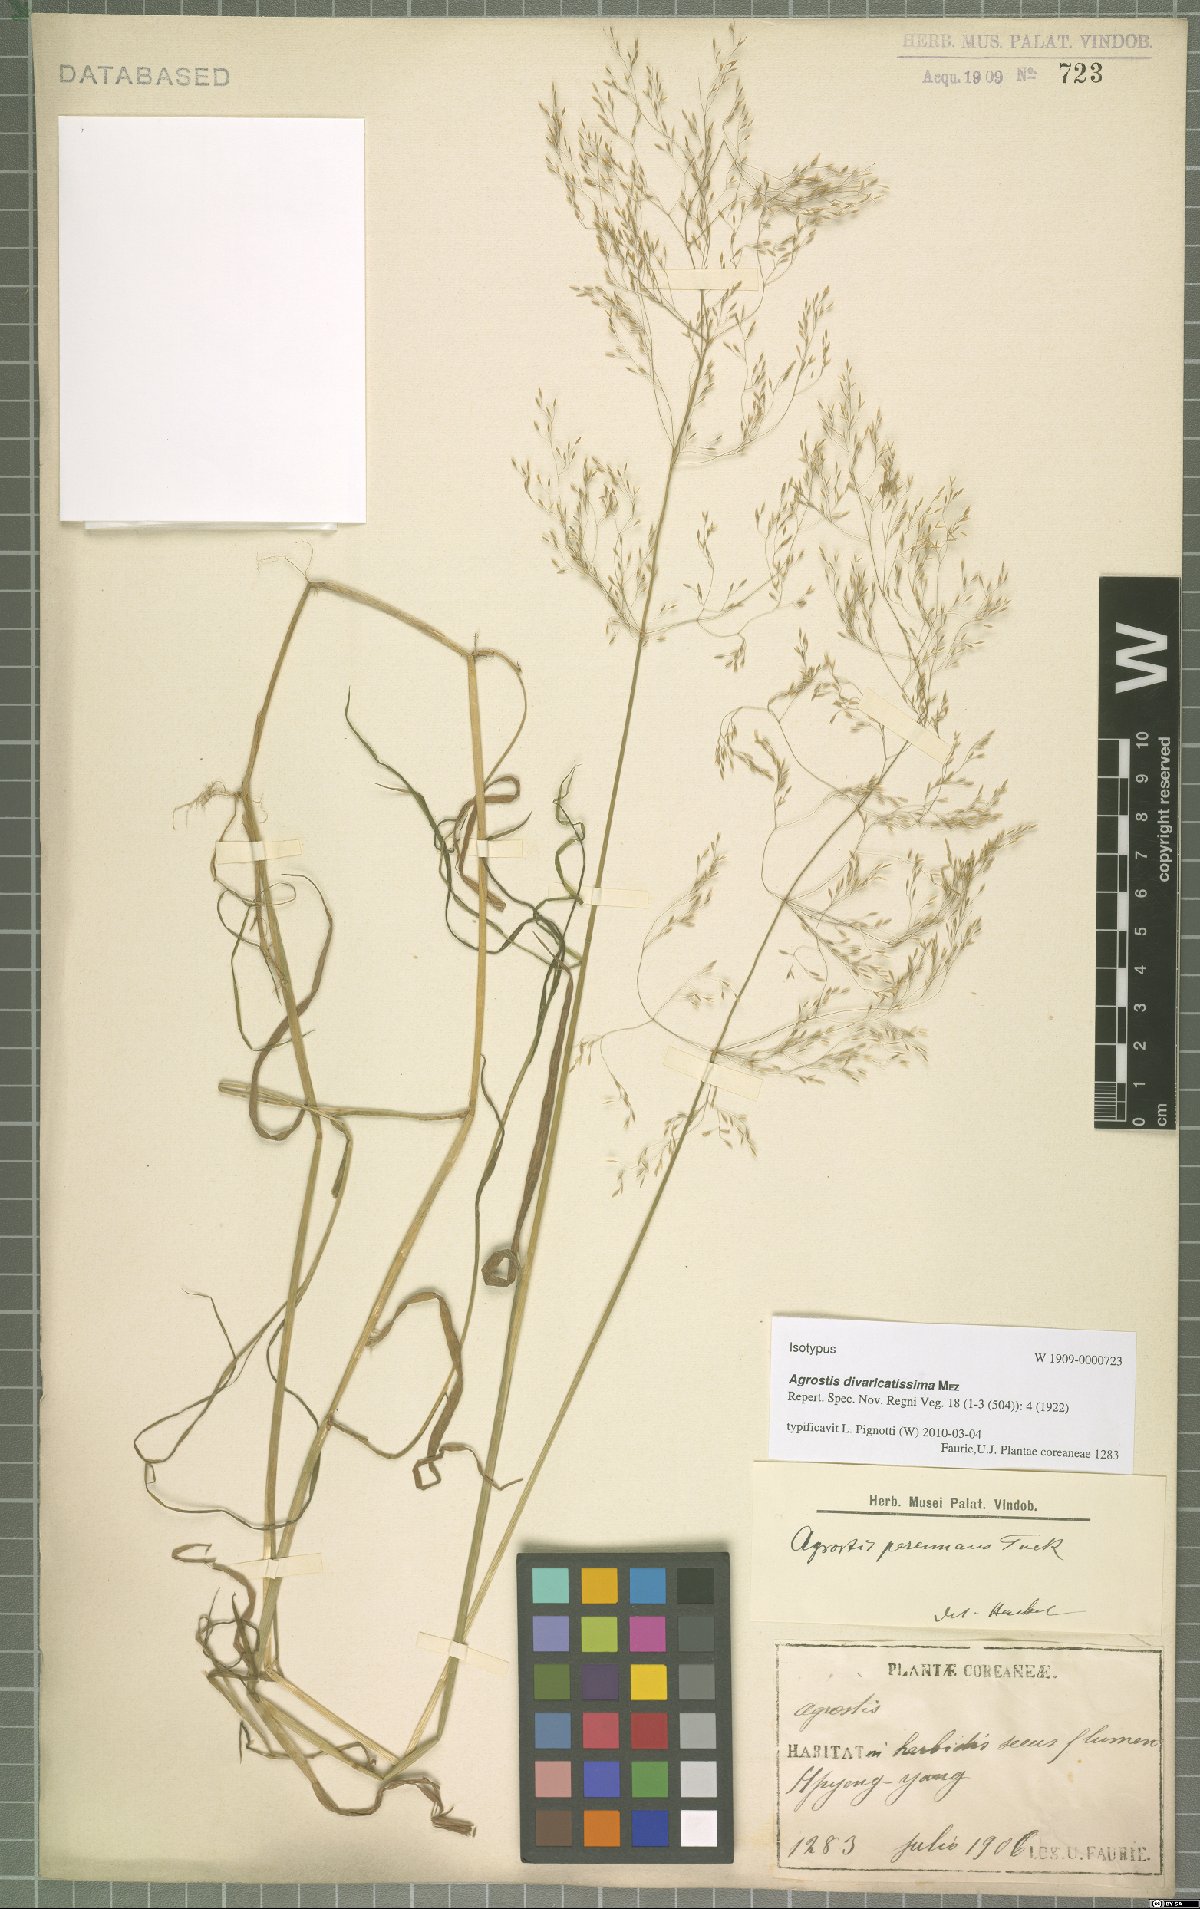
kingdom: Plantae
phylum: Tracheophyta
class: Liliopsida
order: Poales
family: Poaceae
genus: Agrostis
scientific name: Agrostis divaricatissima
